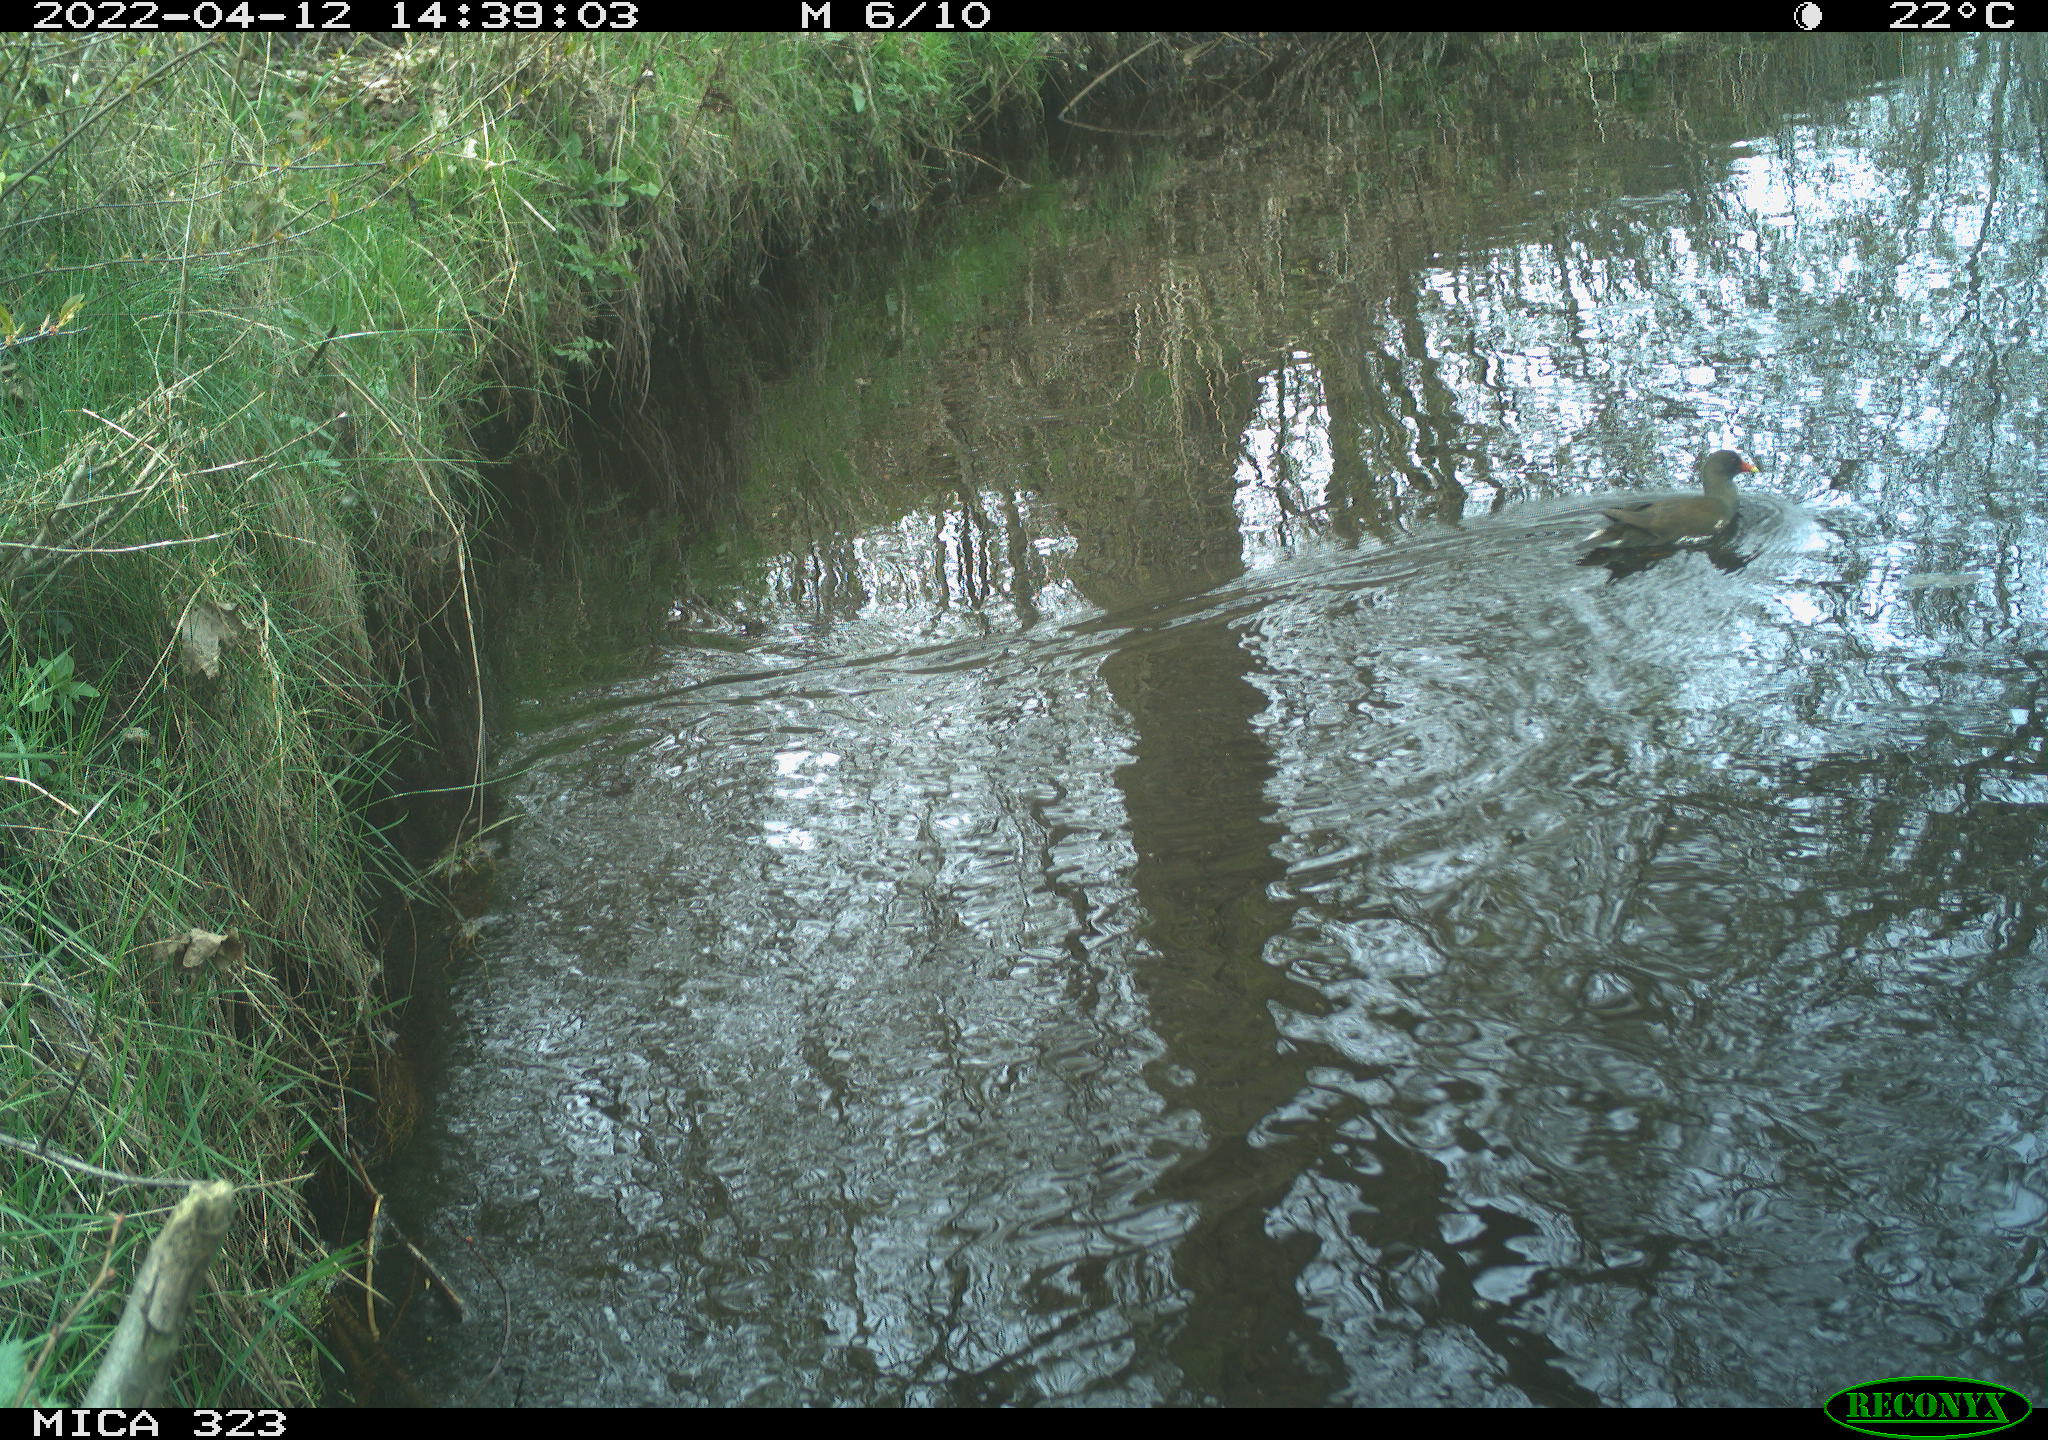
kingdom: Animalia
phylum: Chordata
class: Aves
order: Gruiformes
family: Rallidae
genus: Gallinula
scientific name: Gallinula chloropus
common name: Common moorhen
